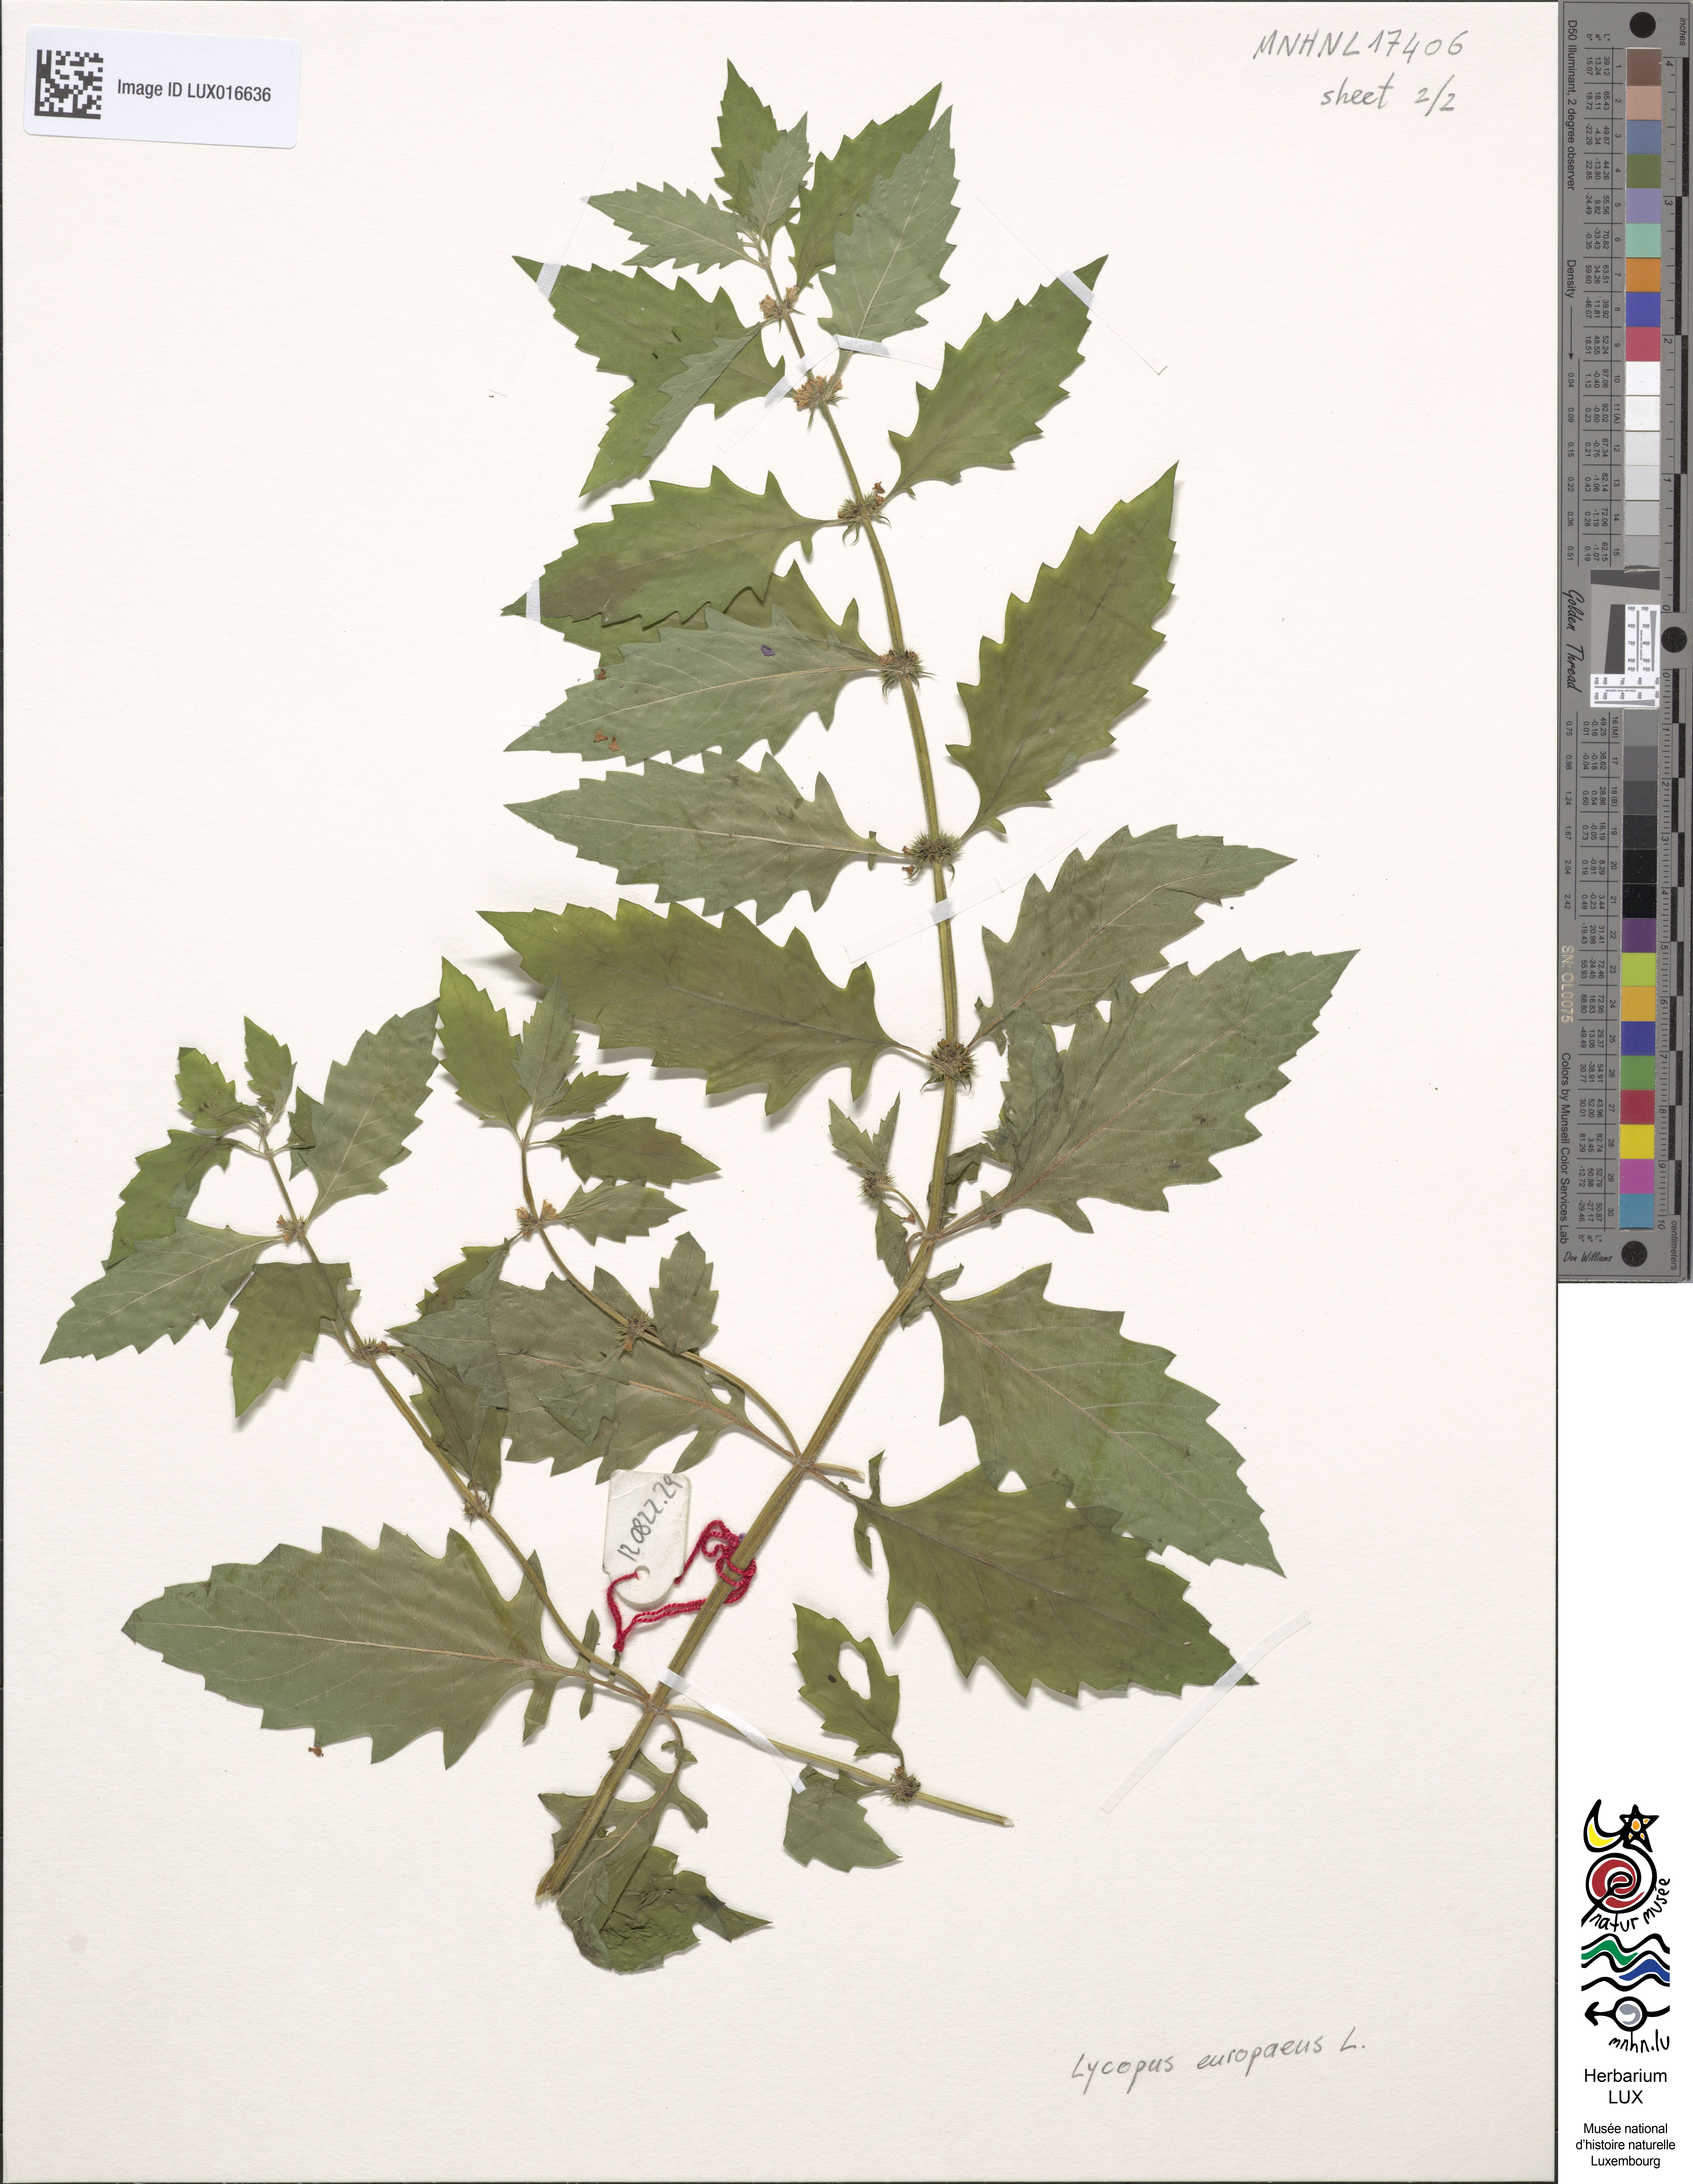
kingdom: Plantae
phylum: Tracheophyta
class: Magnoliopsida
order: Lamiales
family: Lamiaceae
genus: Lycopus
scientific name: Lycopus europaeus
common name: European bugleweed
